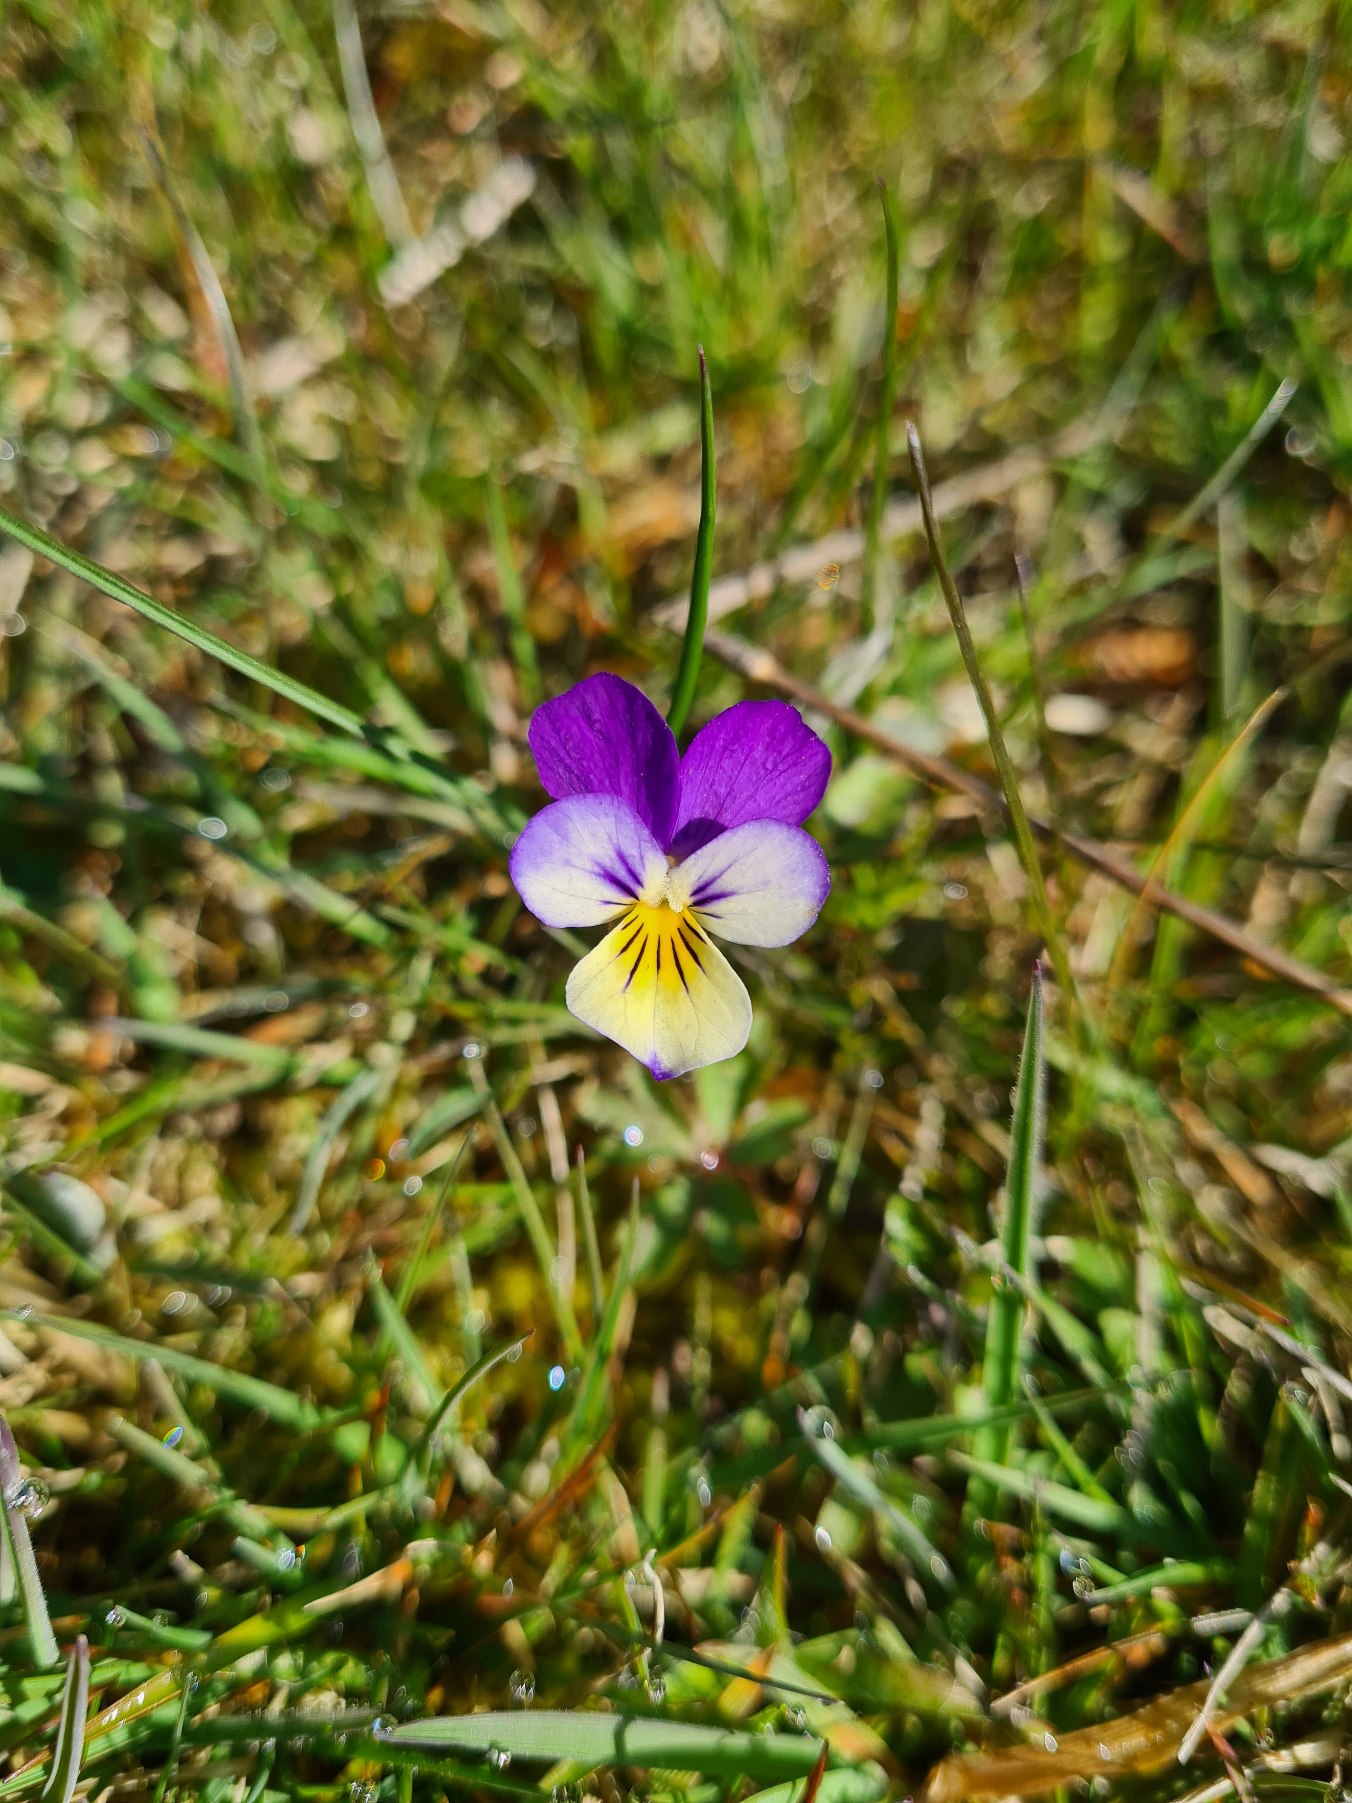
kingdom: Plantae
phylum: Tracheophyta
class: Magnoliopsida
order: Malpighiales
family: Violaceae
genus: Viola
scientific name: Viola tricolor
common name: Almindelig stedmoderblomst
